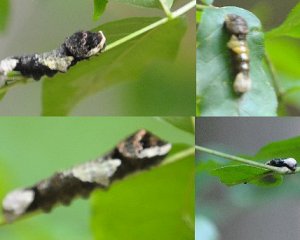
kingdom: Animalia
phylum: Arthropoda
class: Insecta
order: Lepidoptera
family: Papilionidae
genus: Papilio
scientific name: Papilio cresphontes
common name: Eastern Giant Swallowtail
